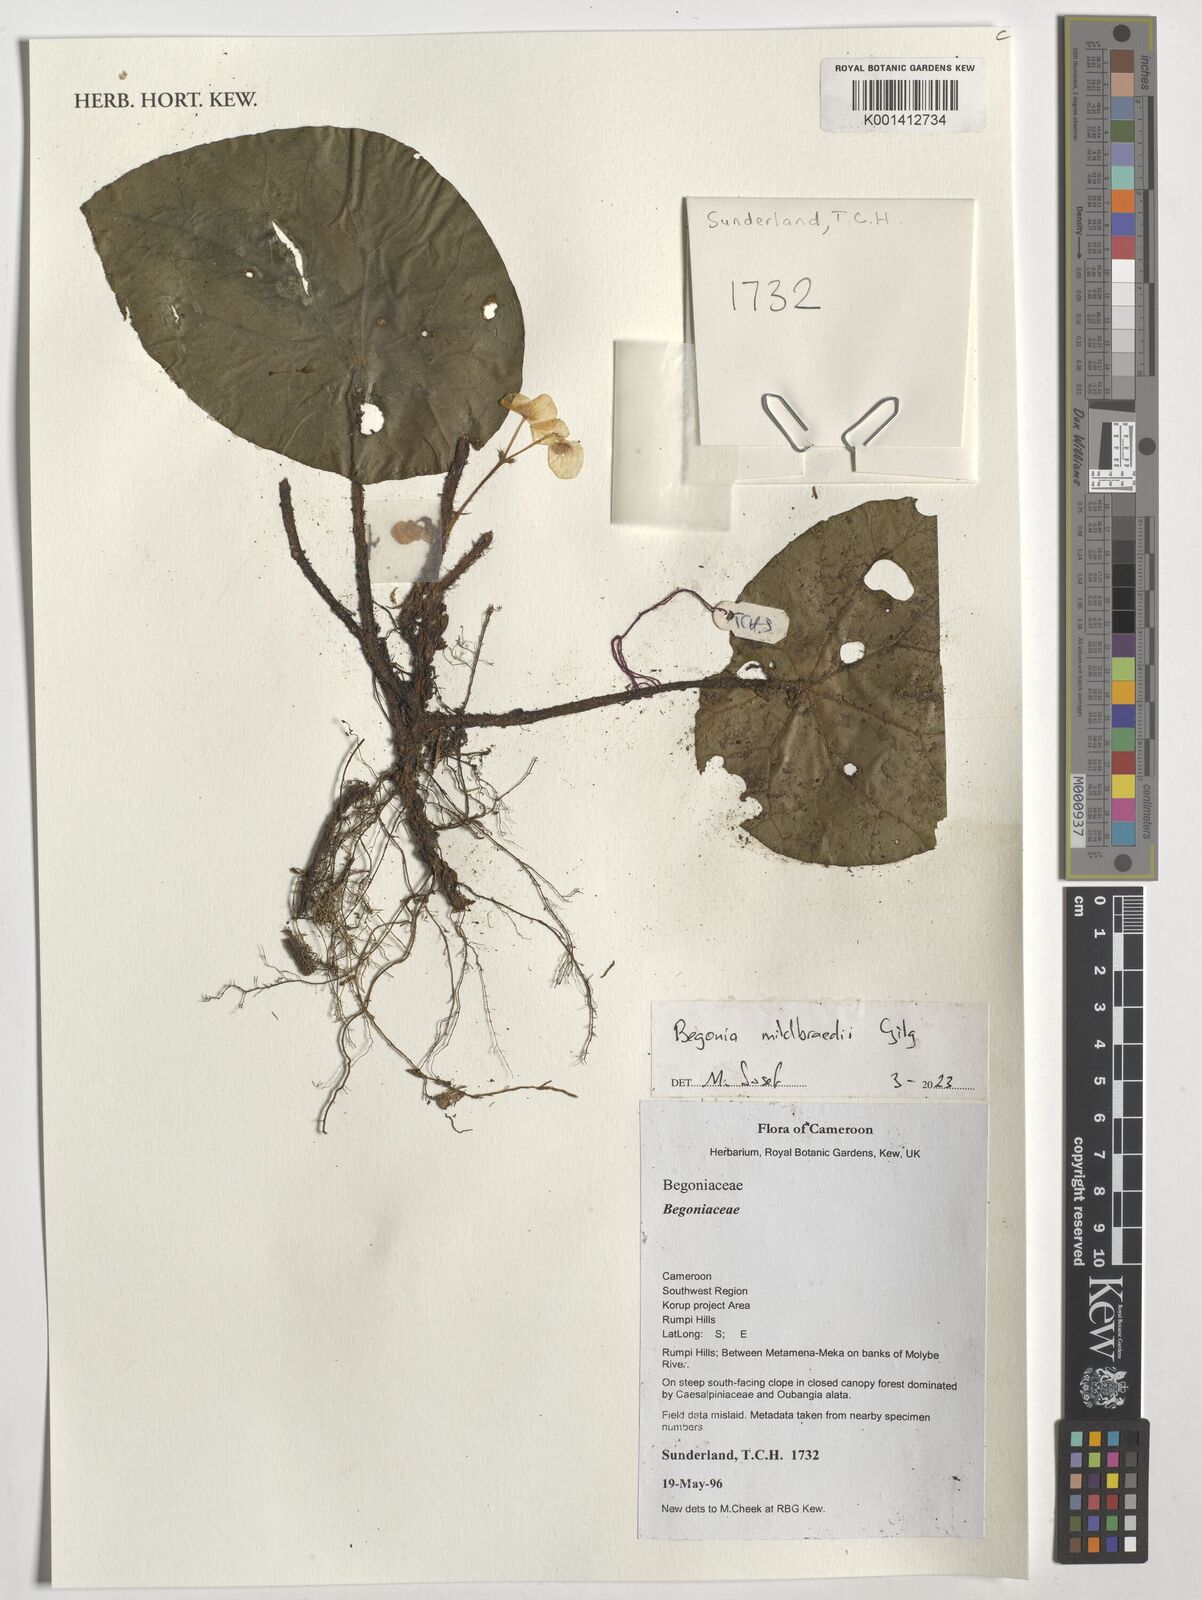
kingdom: Plantae
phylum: Tracheophyta
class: Magnoliopsida
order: Cucurbitales
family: Begoniaceae
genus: Begonia
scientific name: Begonia mildbraedii
